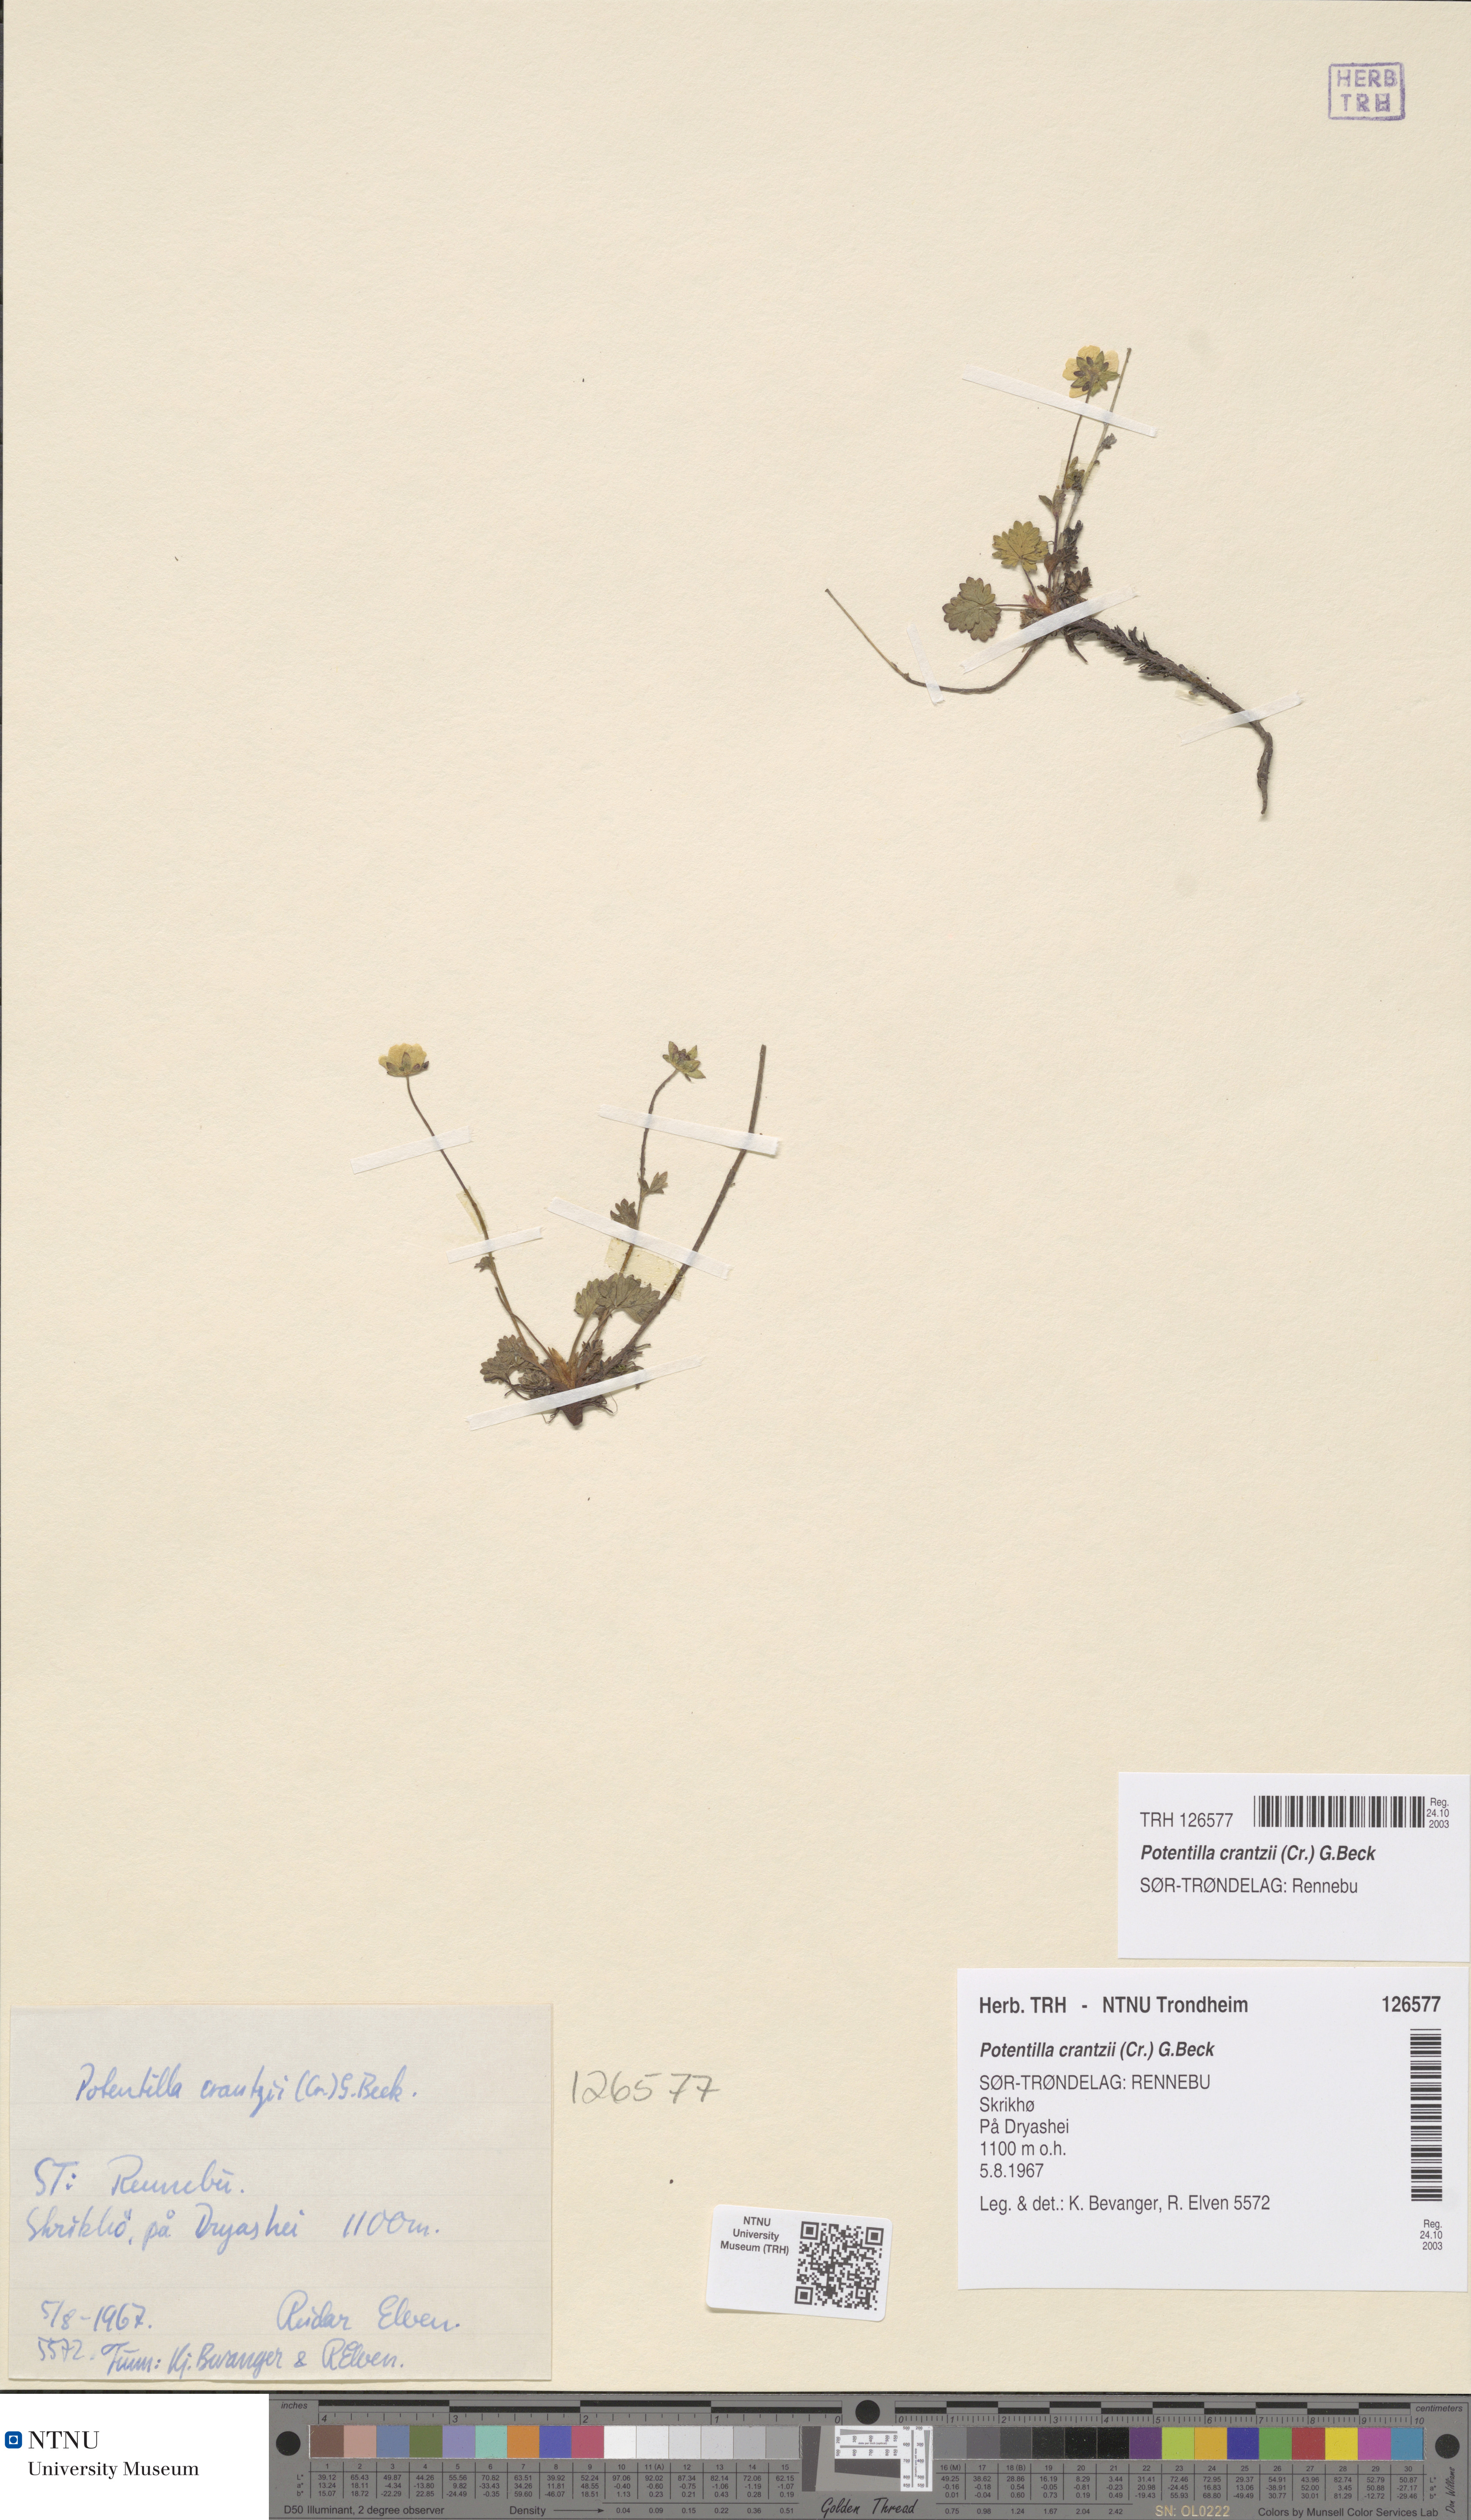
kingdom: Plantae
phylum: Tracheophyta
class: Magnoliopsida
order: Rosales
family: Rosaceae
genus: Potentilla
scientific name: Potentilla crantzii
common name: Alpine cinquefoil
